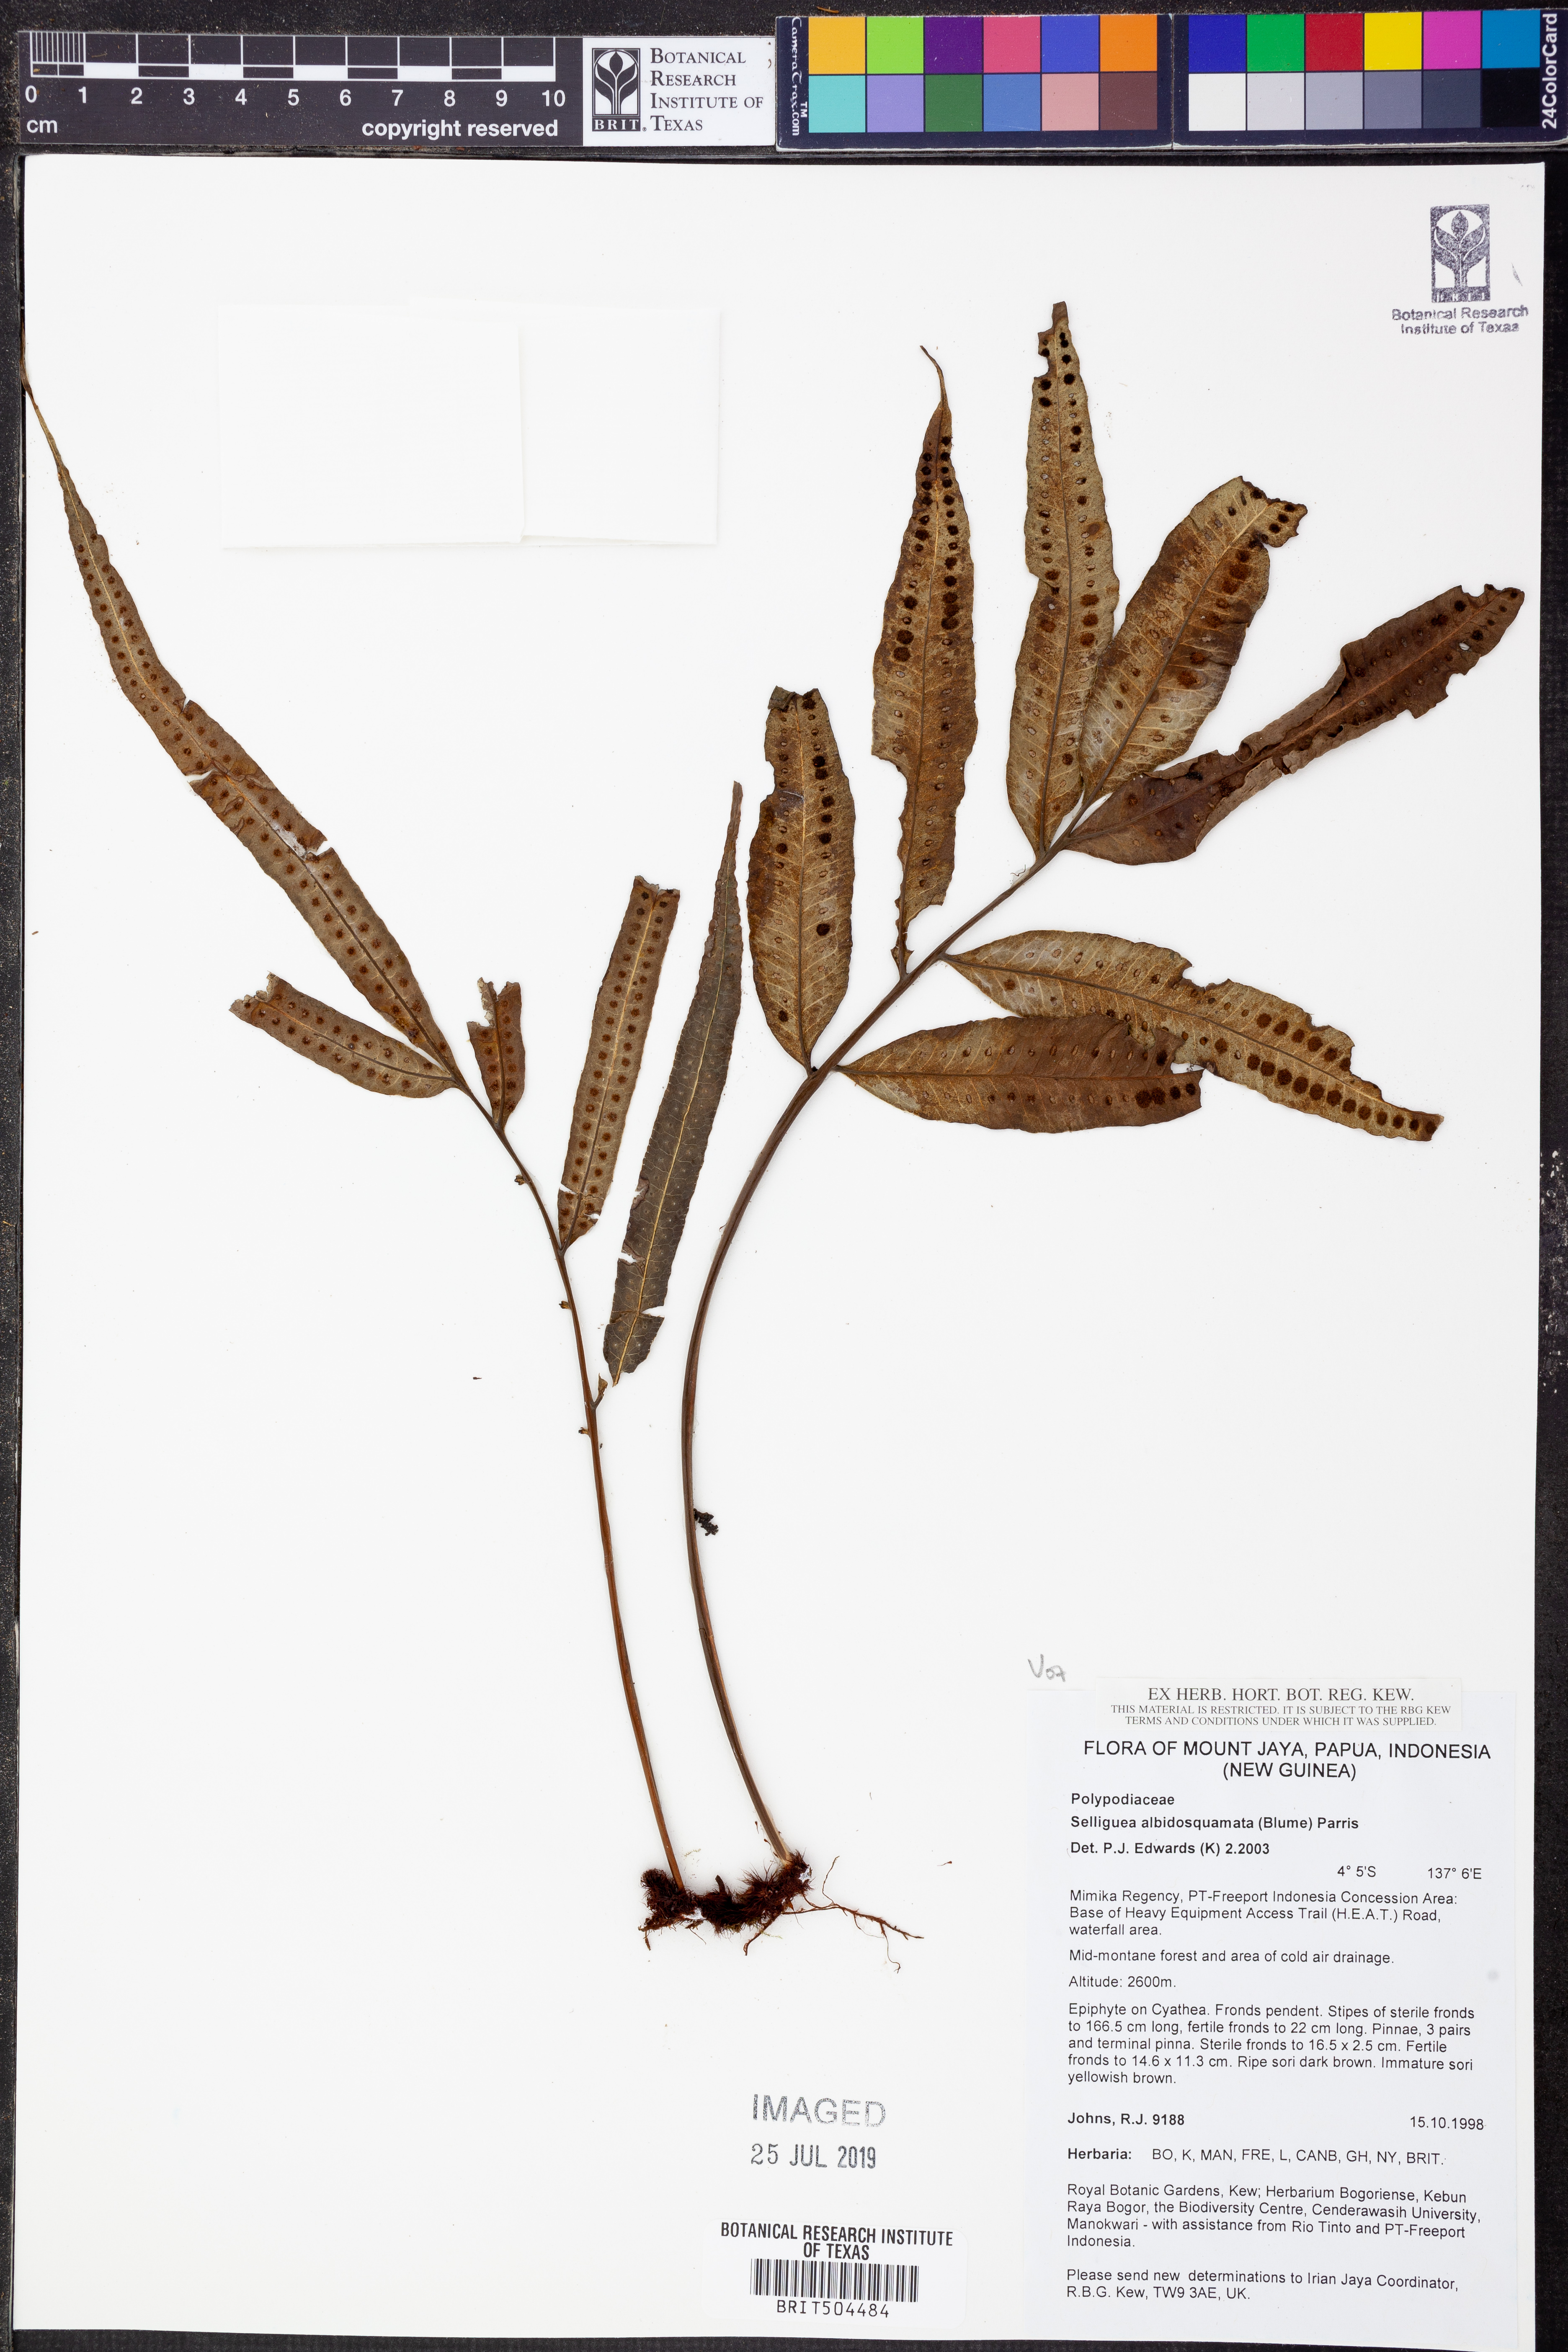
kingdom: Plantae
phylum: Tracheophyta
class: Polypodiopsida
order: Polypodiales
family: Polypodiaceae
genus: Selliguea
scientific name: Selliguea albidosquamata
